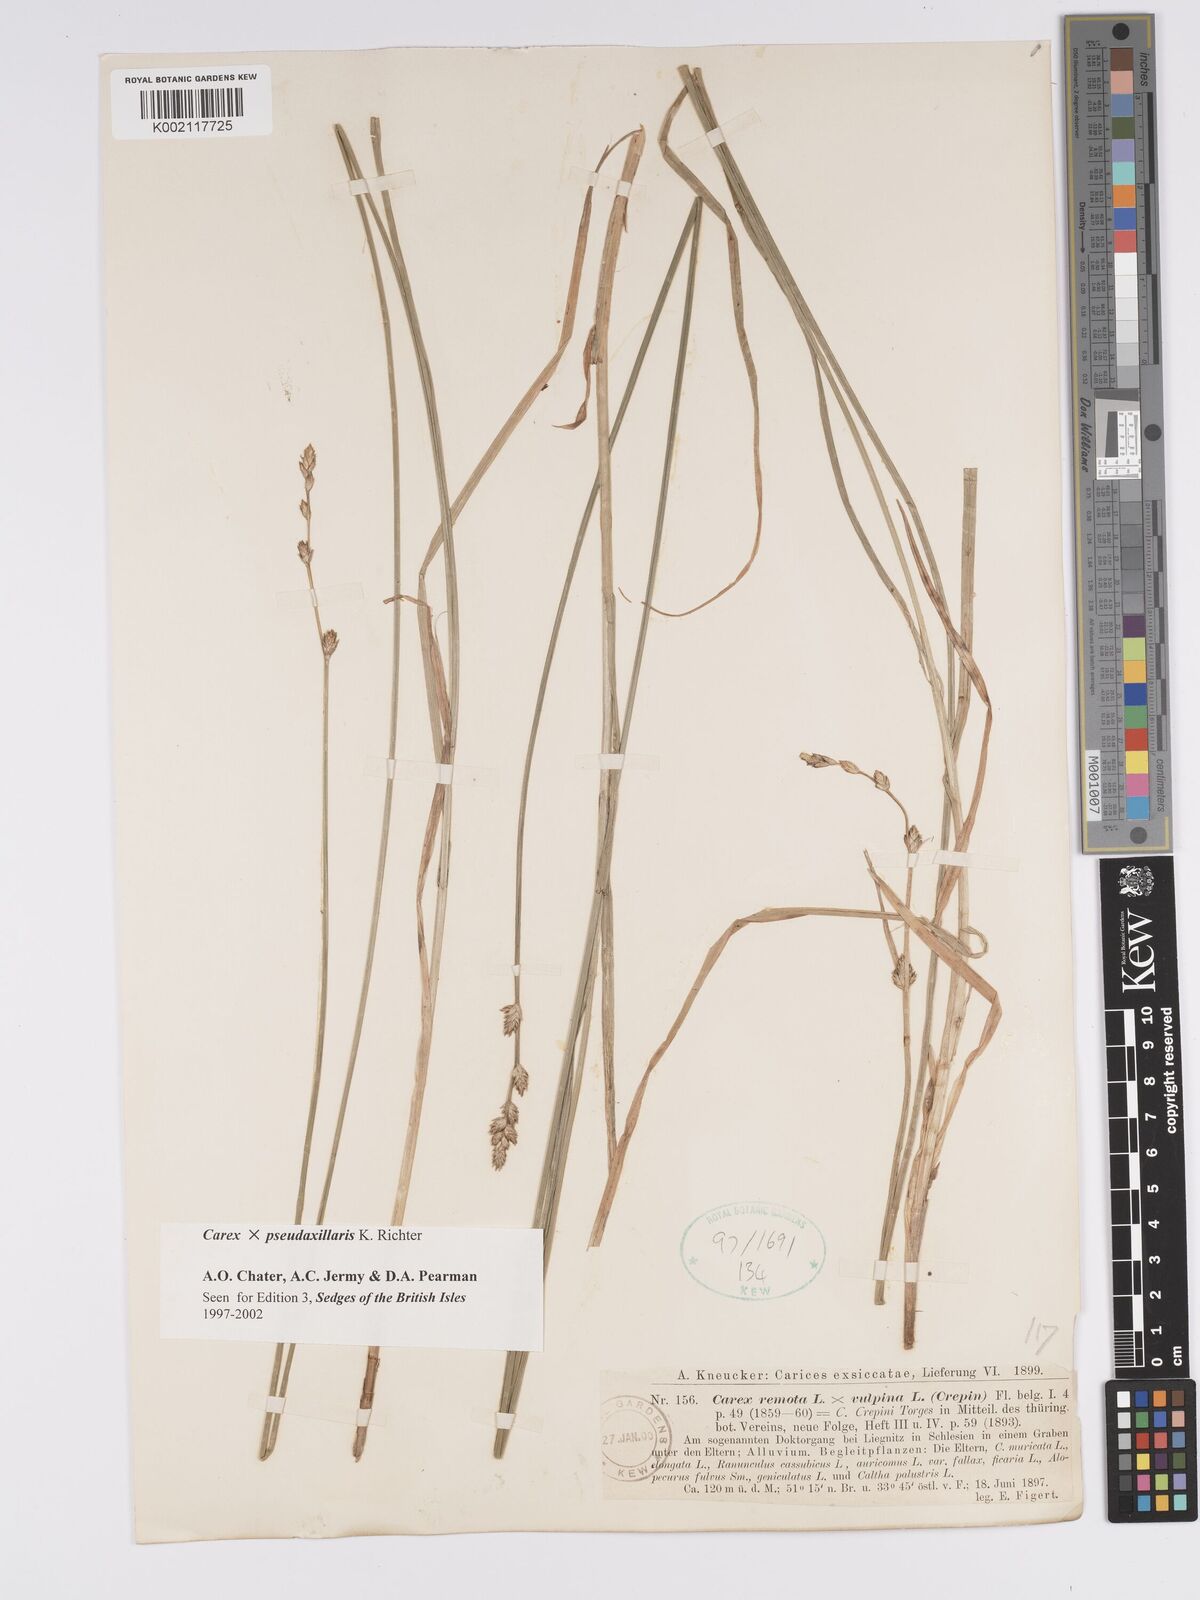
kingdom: Plantae
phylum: Tracheophyta
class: Liliopsida
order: Poales
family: Cyperaceae
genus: Carex
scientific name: Carex pseudoaxillaris
